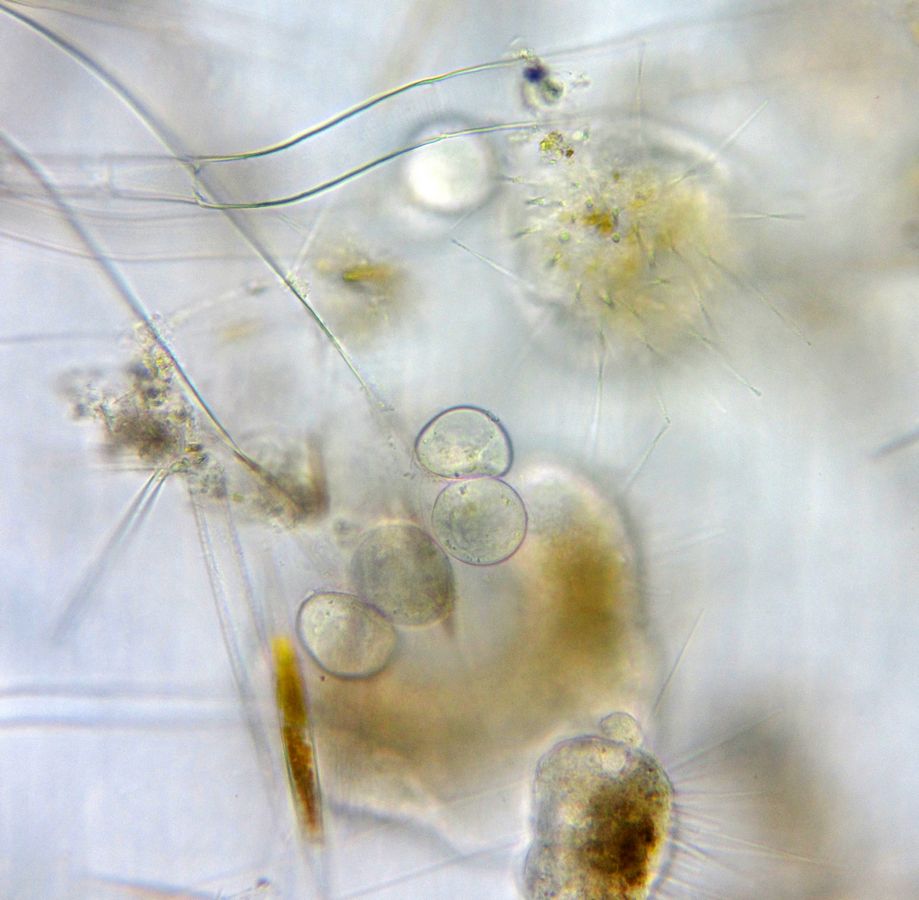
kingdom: Chromista
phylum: Ciliophora
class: Phyllopharyngea
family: Ephelotidae
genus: Ephelota
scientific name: Ephelota truncata
